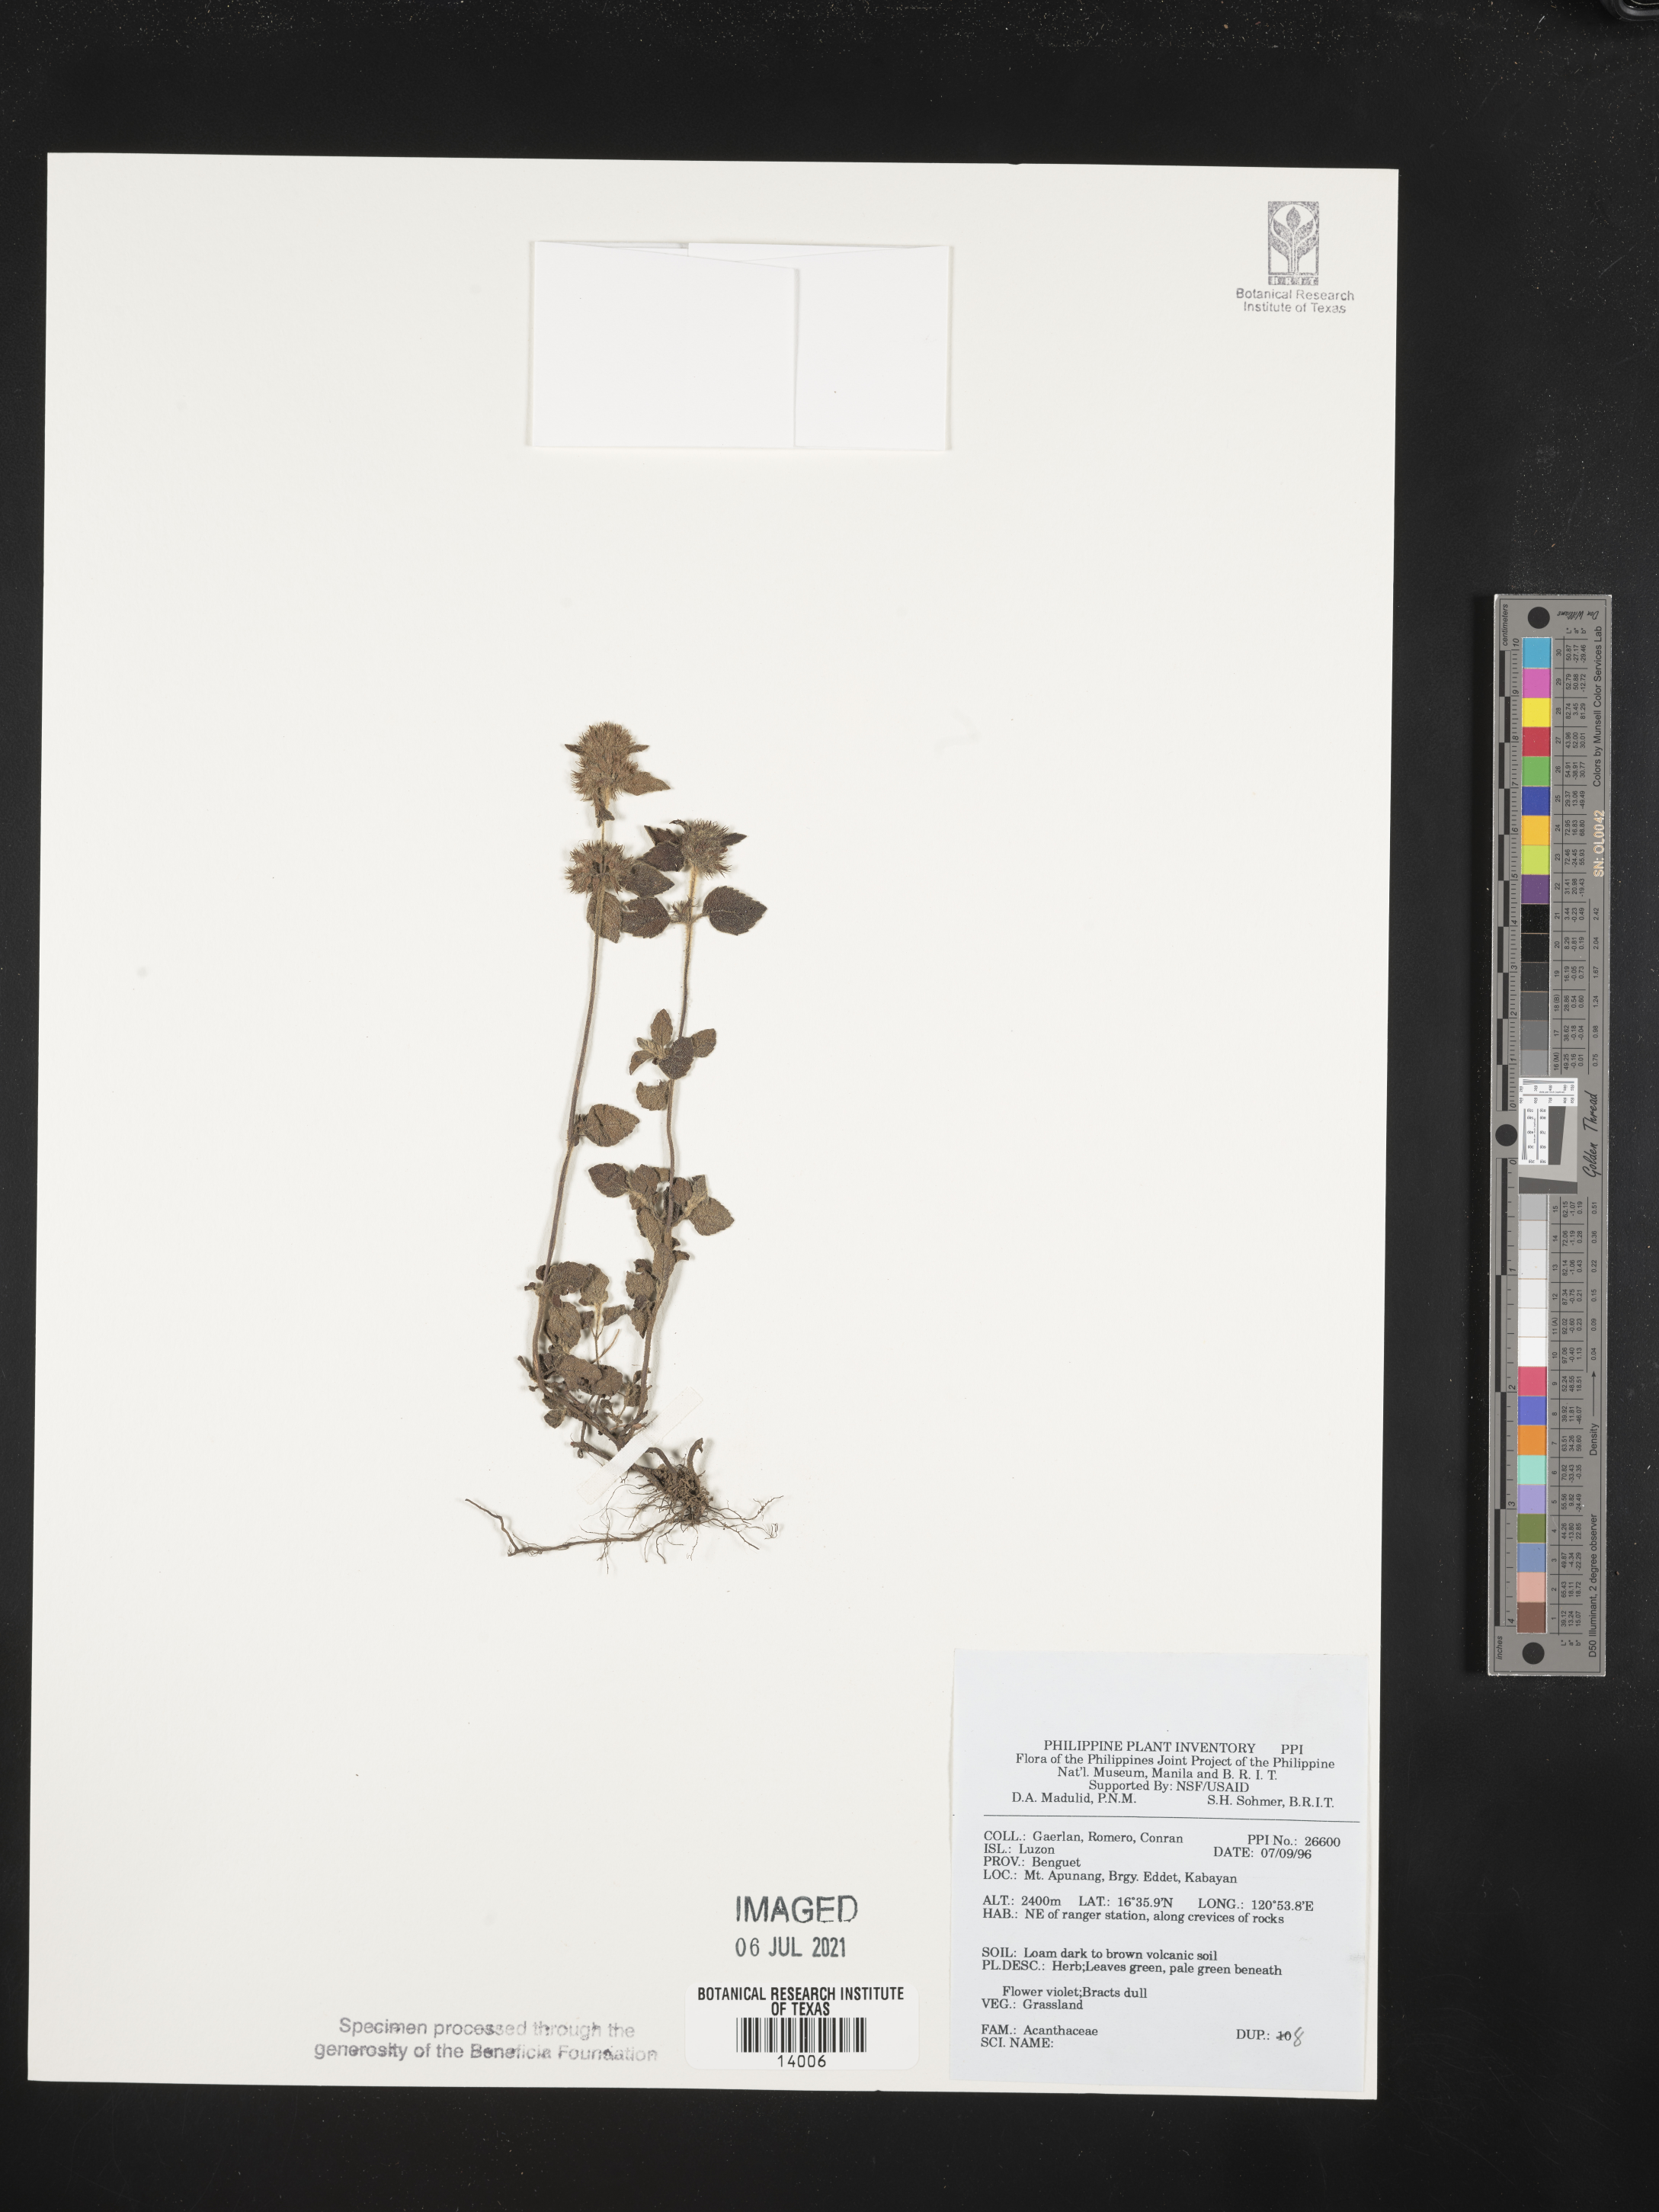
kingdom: Plantae
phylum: Tracheophyta
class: Magnoliopsida
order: Lamiales
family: Acanthaceae
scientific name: Acanthaceae
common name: Acanthaceae
